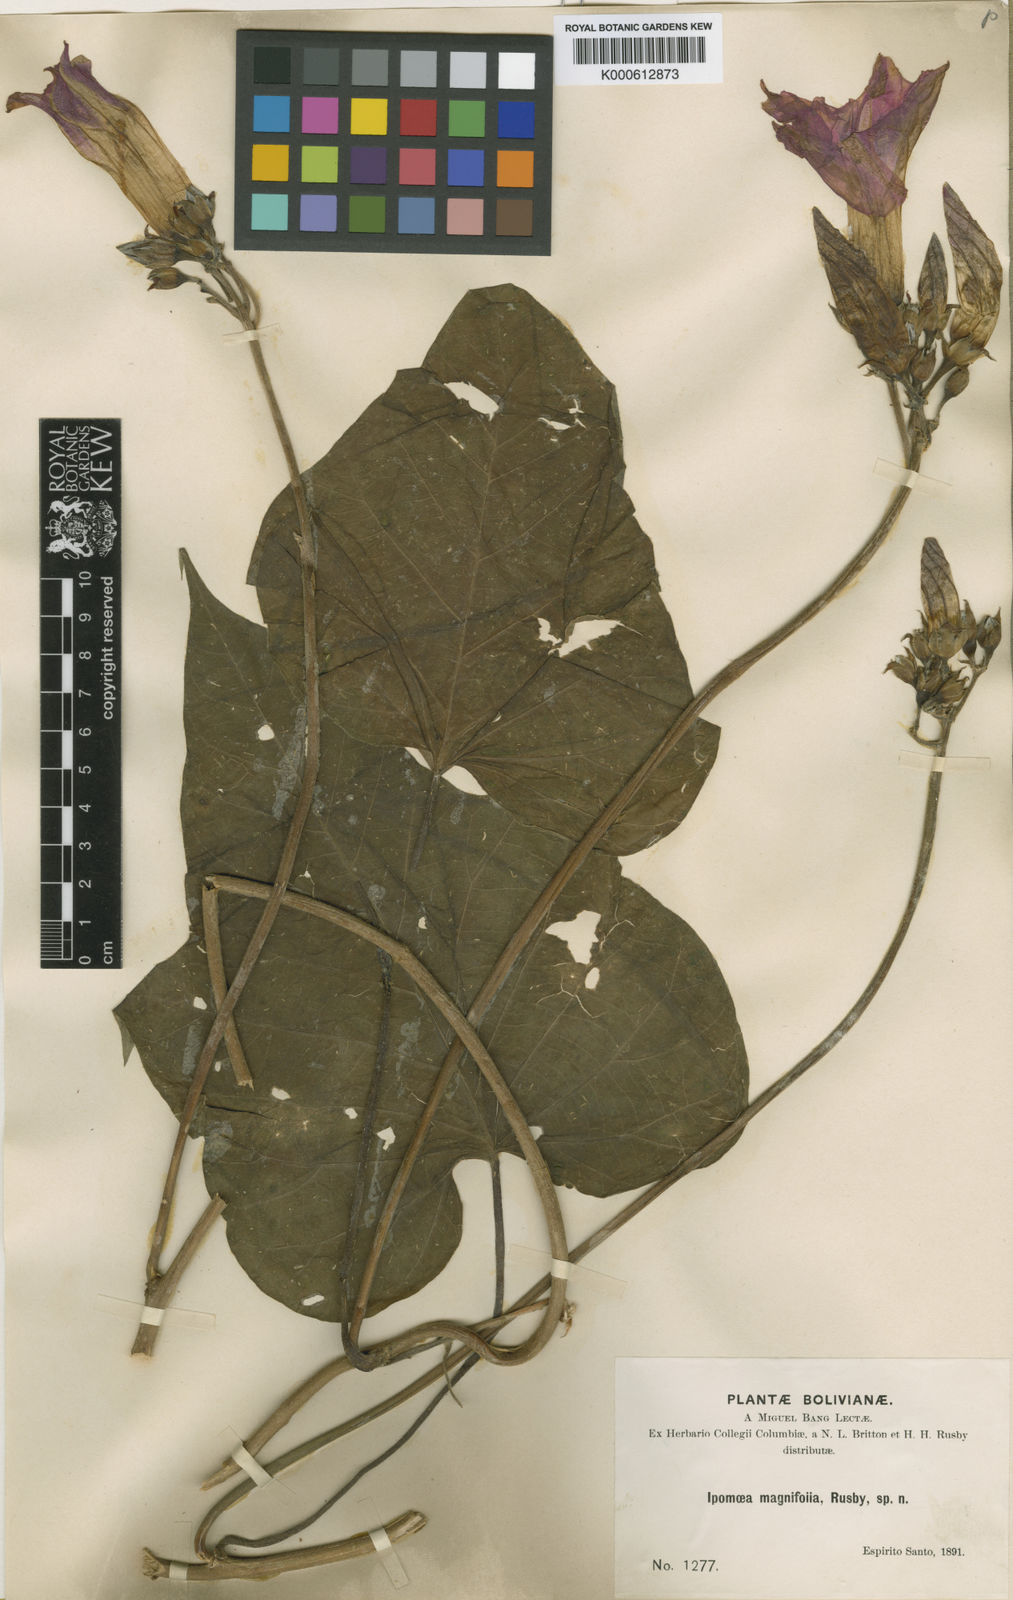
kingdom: Plantae
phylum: Tracheophyta
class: Magnoliopsida
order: Solanales
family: Convolvulaceae
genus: Ipomoea
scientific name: Ipomoea magnifolia
